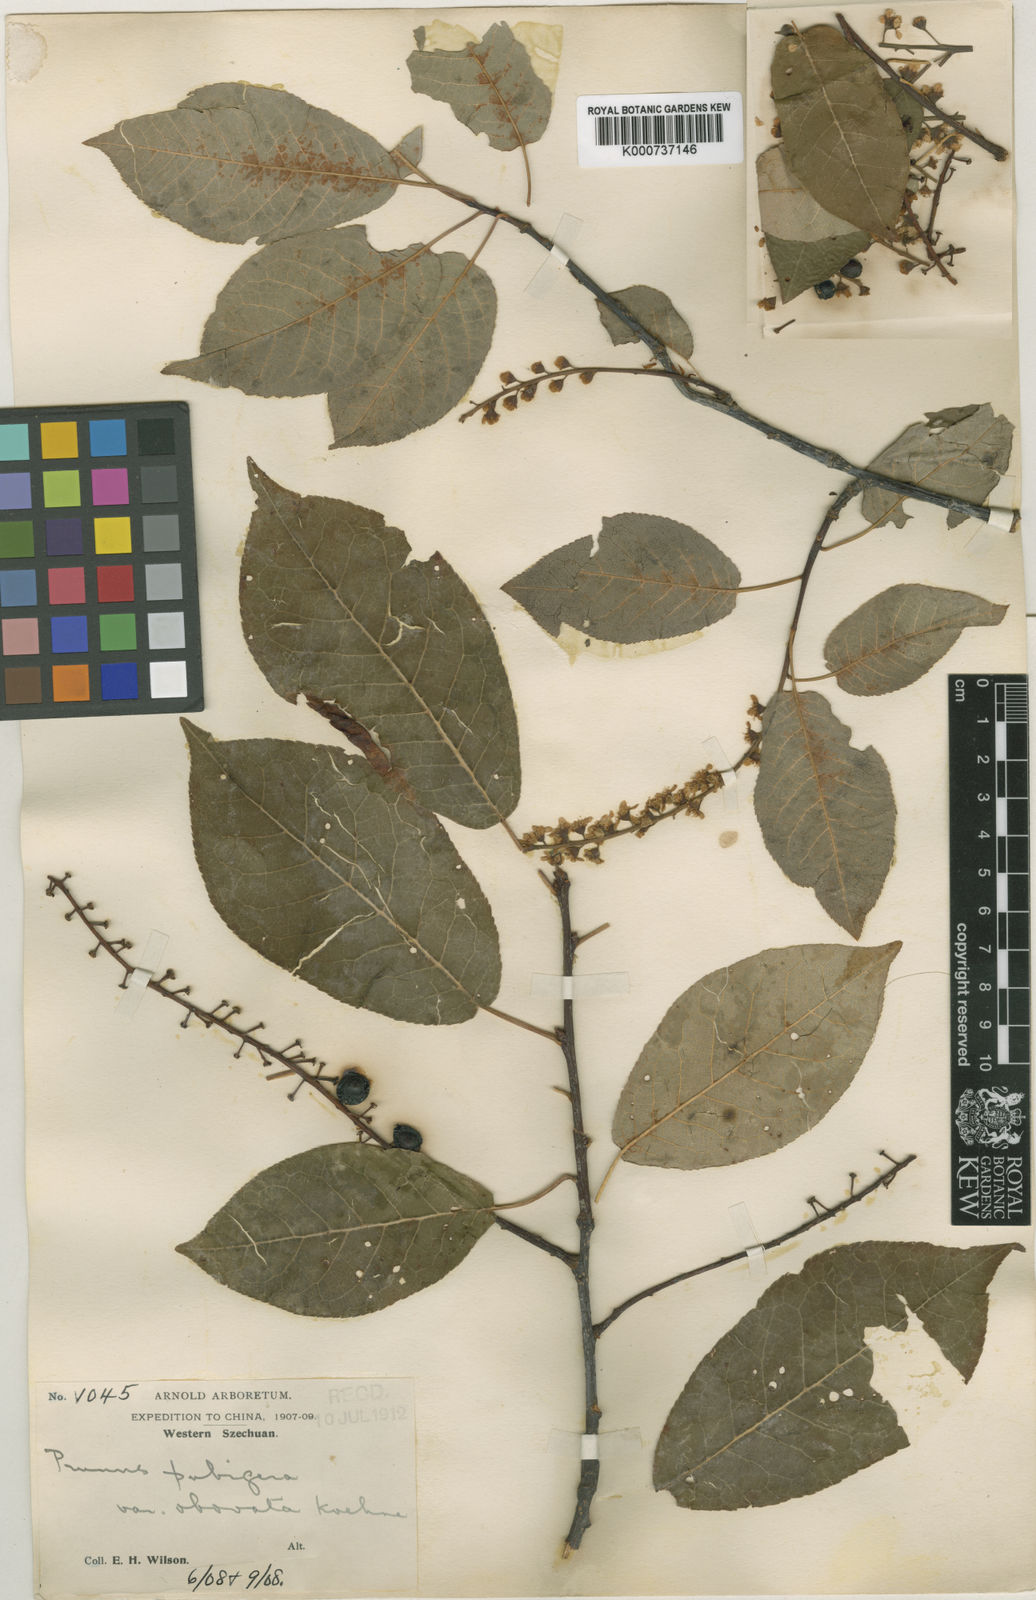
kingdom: Plantae
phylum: Tracheophyta
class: Magnoliopsida
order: Rosales
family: Rosaceae
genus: Prunus
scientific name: Prunus obtusata
